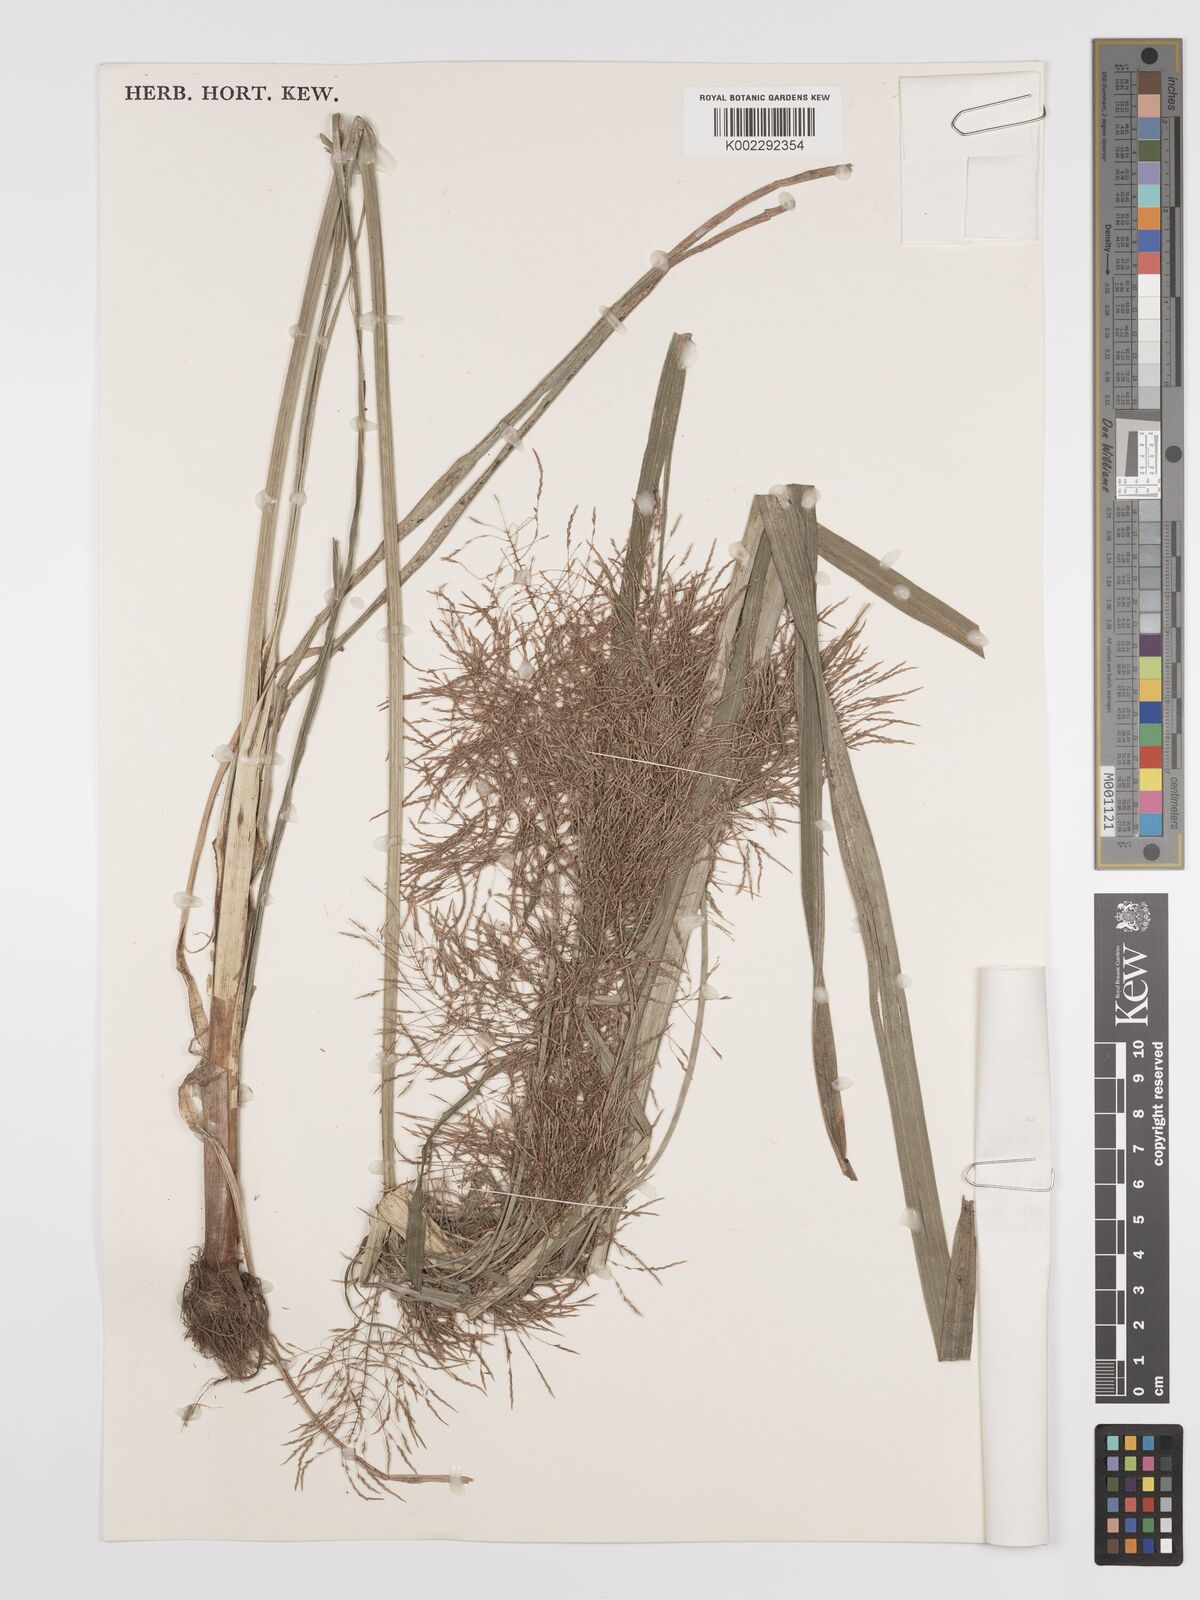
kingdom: Plantae
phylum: Tracheophyta
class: Liliopsida
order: Poales
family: Cyperaceae
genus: Cyperus
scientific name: Cyperus distans
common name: Slender cyperus
